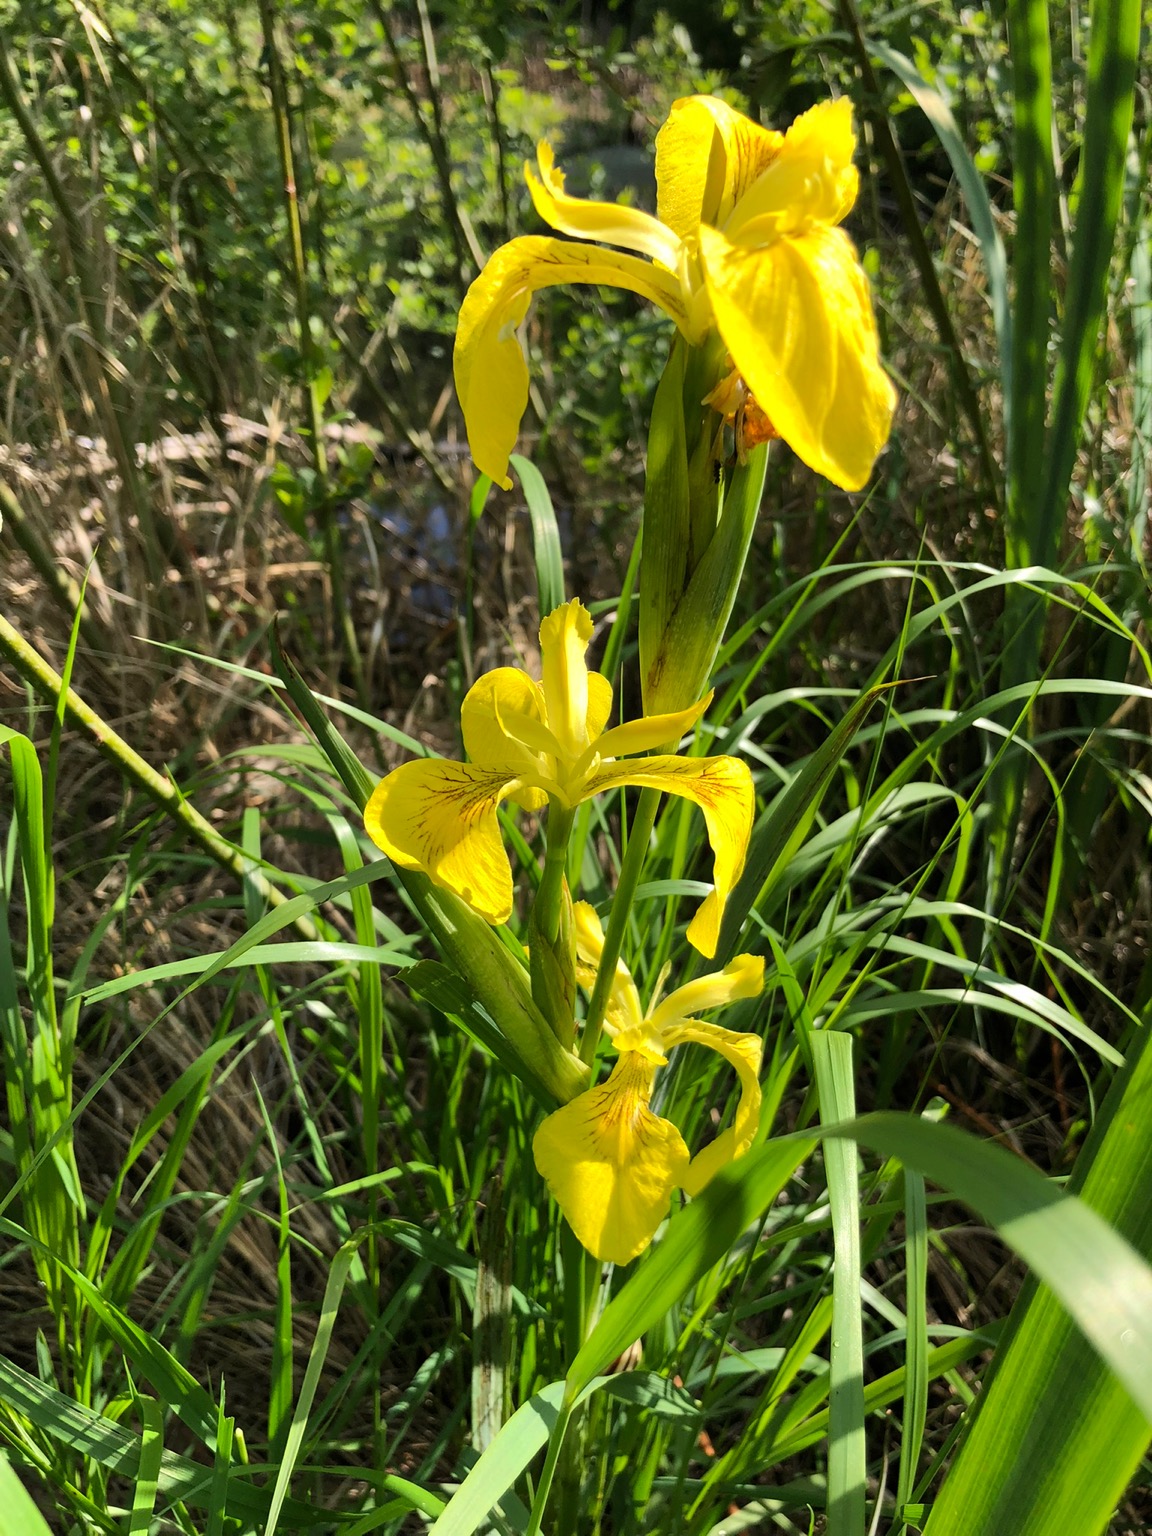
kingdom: Plantae
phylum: Tracheophyta
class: Liliopsida
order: Asparagales
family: Iridaceae
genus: Iris
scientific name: Iris pseudacorus
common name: Gul iris
